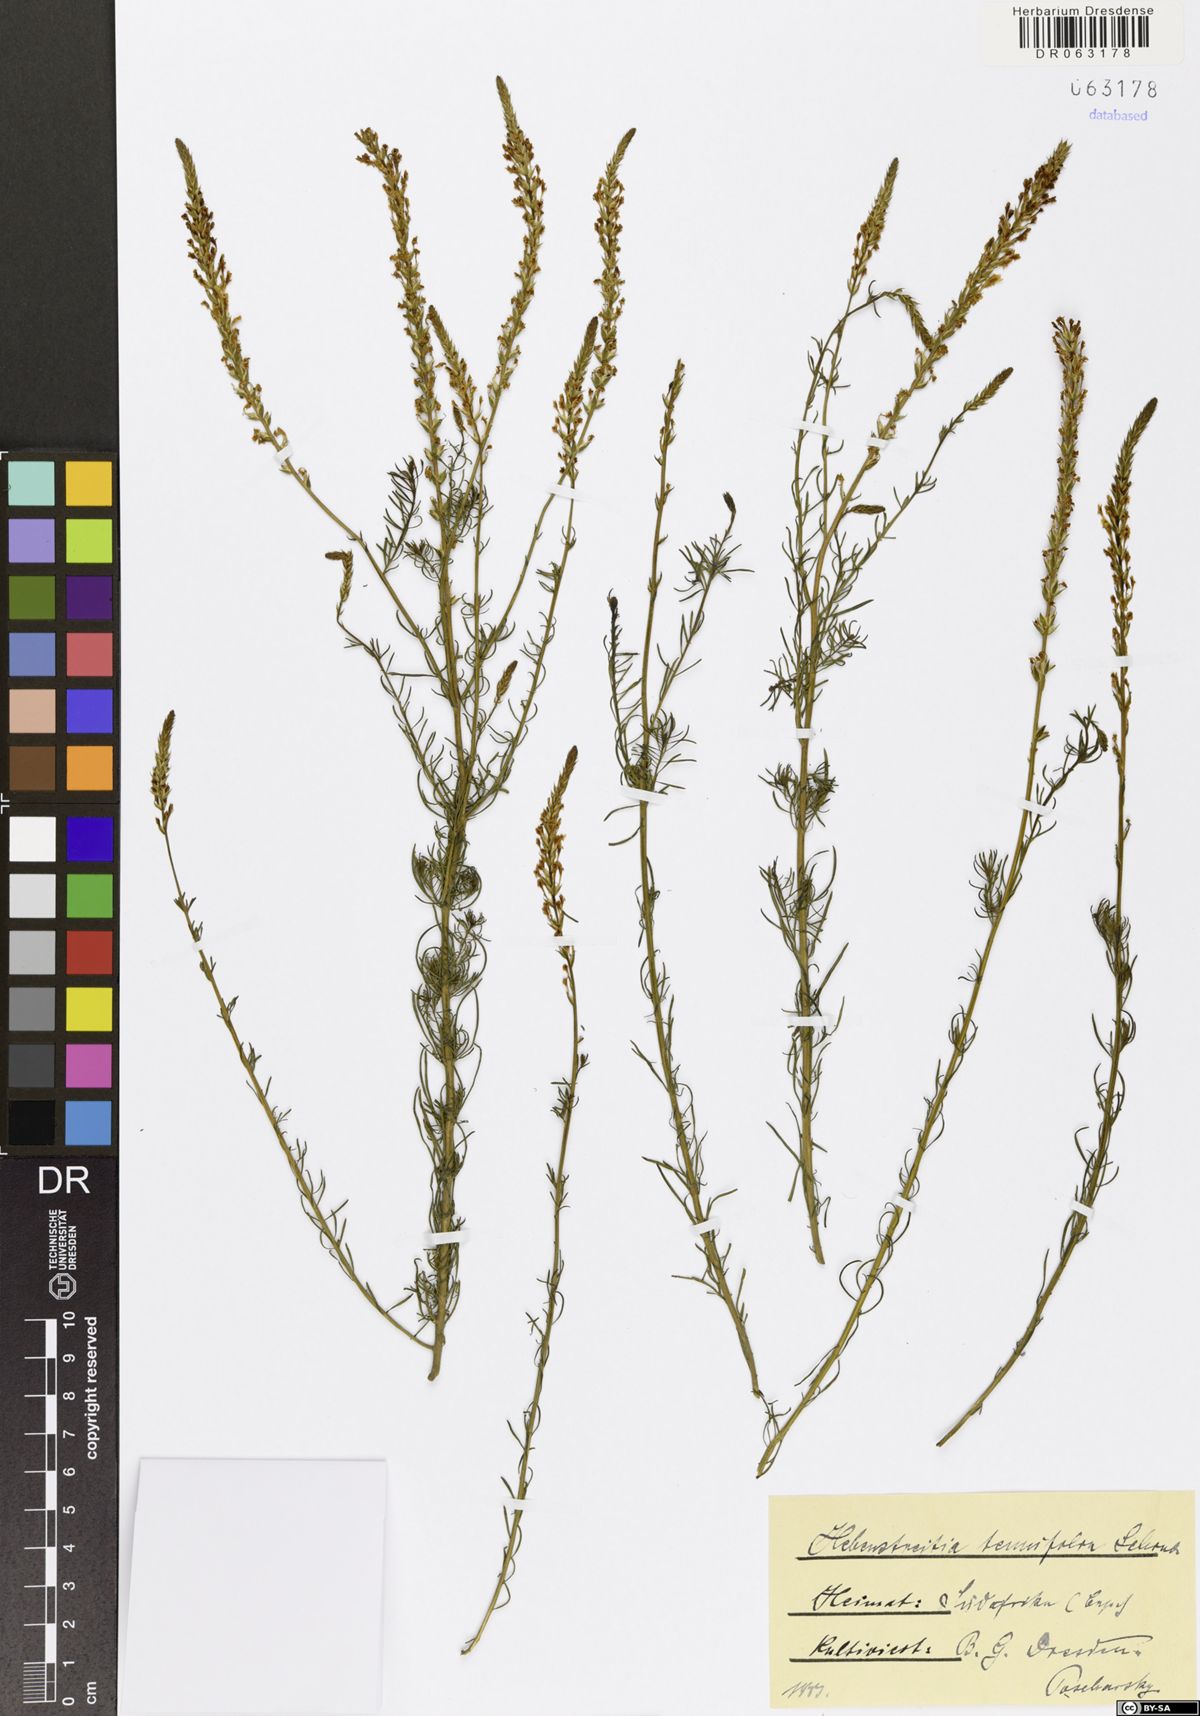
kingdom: Plantae
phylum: Tracheophyta
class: Magnoliopsida
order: Lamiales
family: Scrophulariaceae
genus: Hebenstretia
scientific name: Hebenstretia integrifolia
